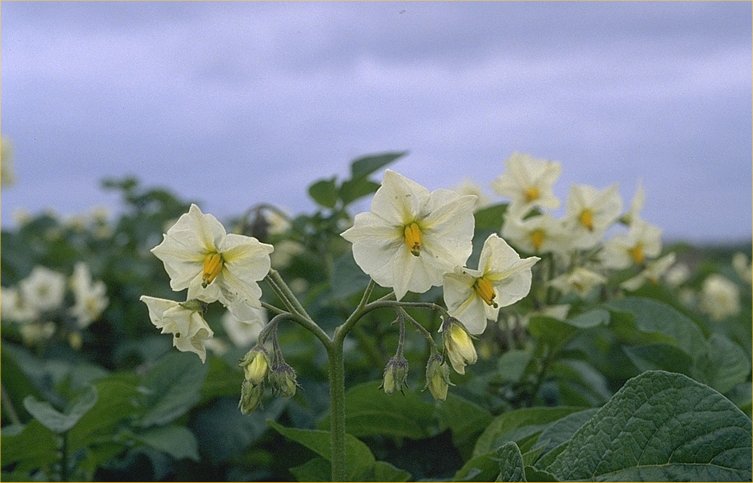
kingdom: Plantae
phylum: Tracheophyta
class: Magnoliopsida
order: Solanales
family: Solanaceae
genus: Solanum
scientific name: Solanum tuberosum
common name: Potato
